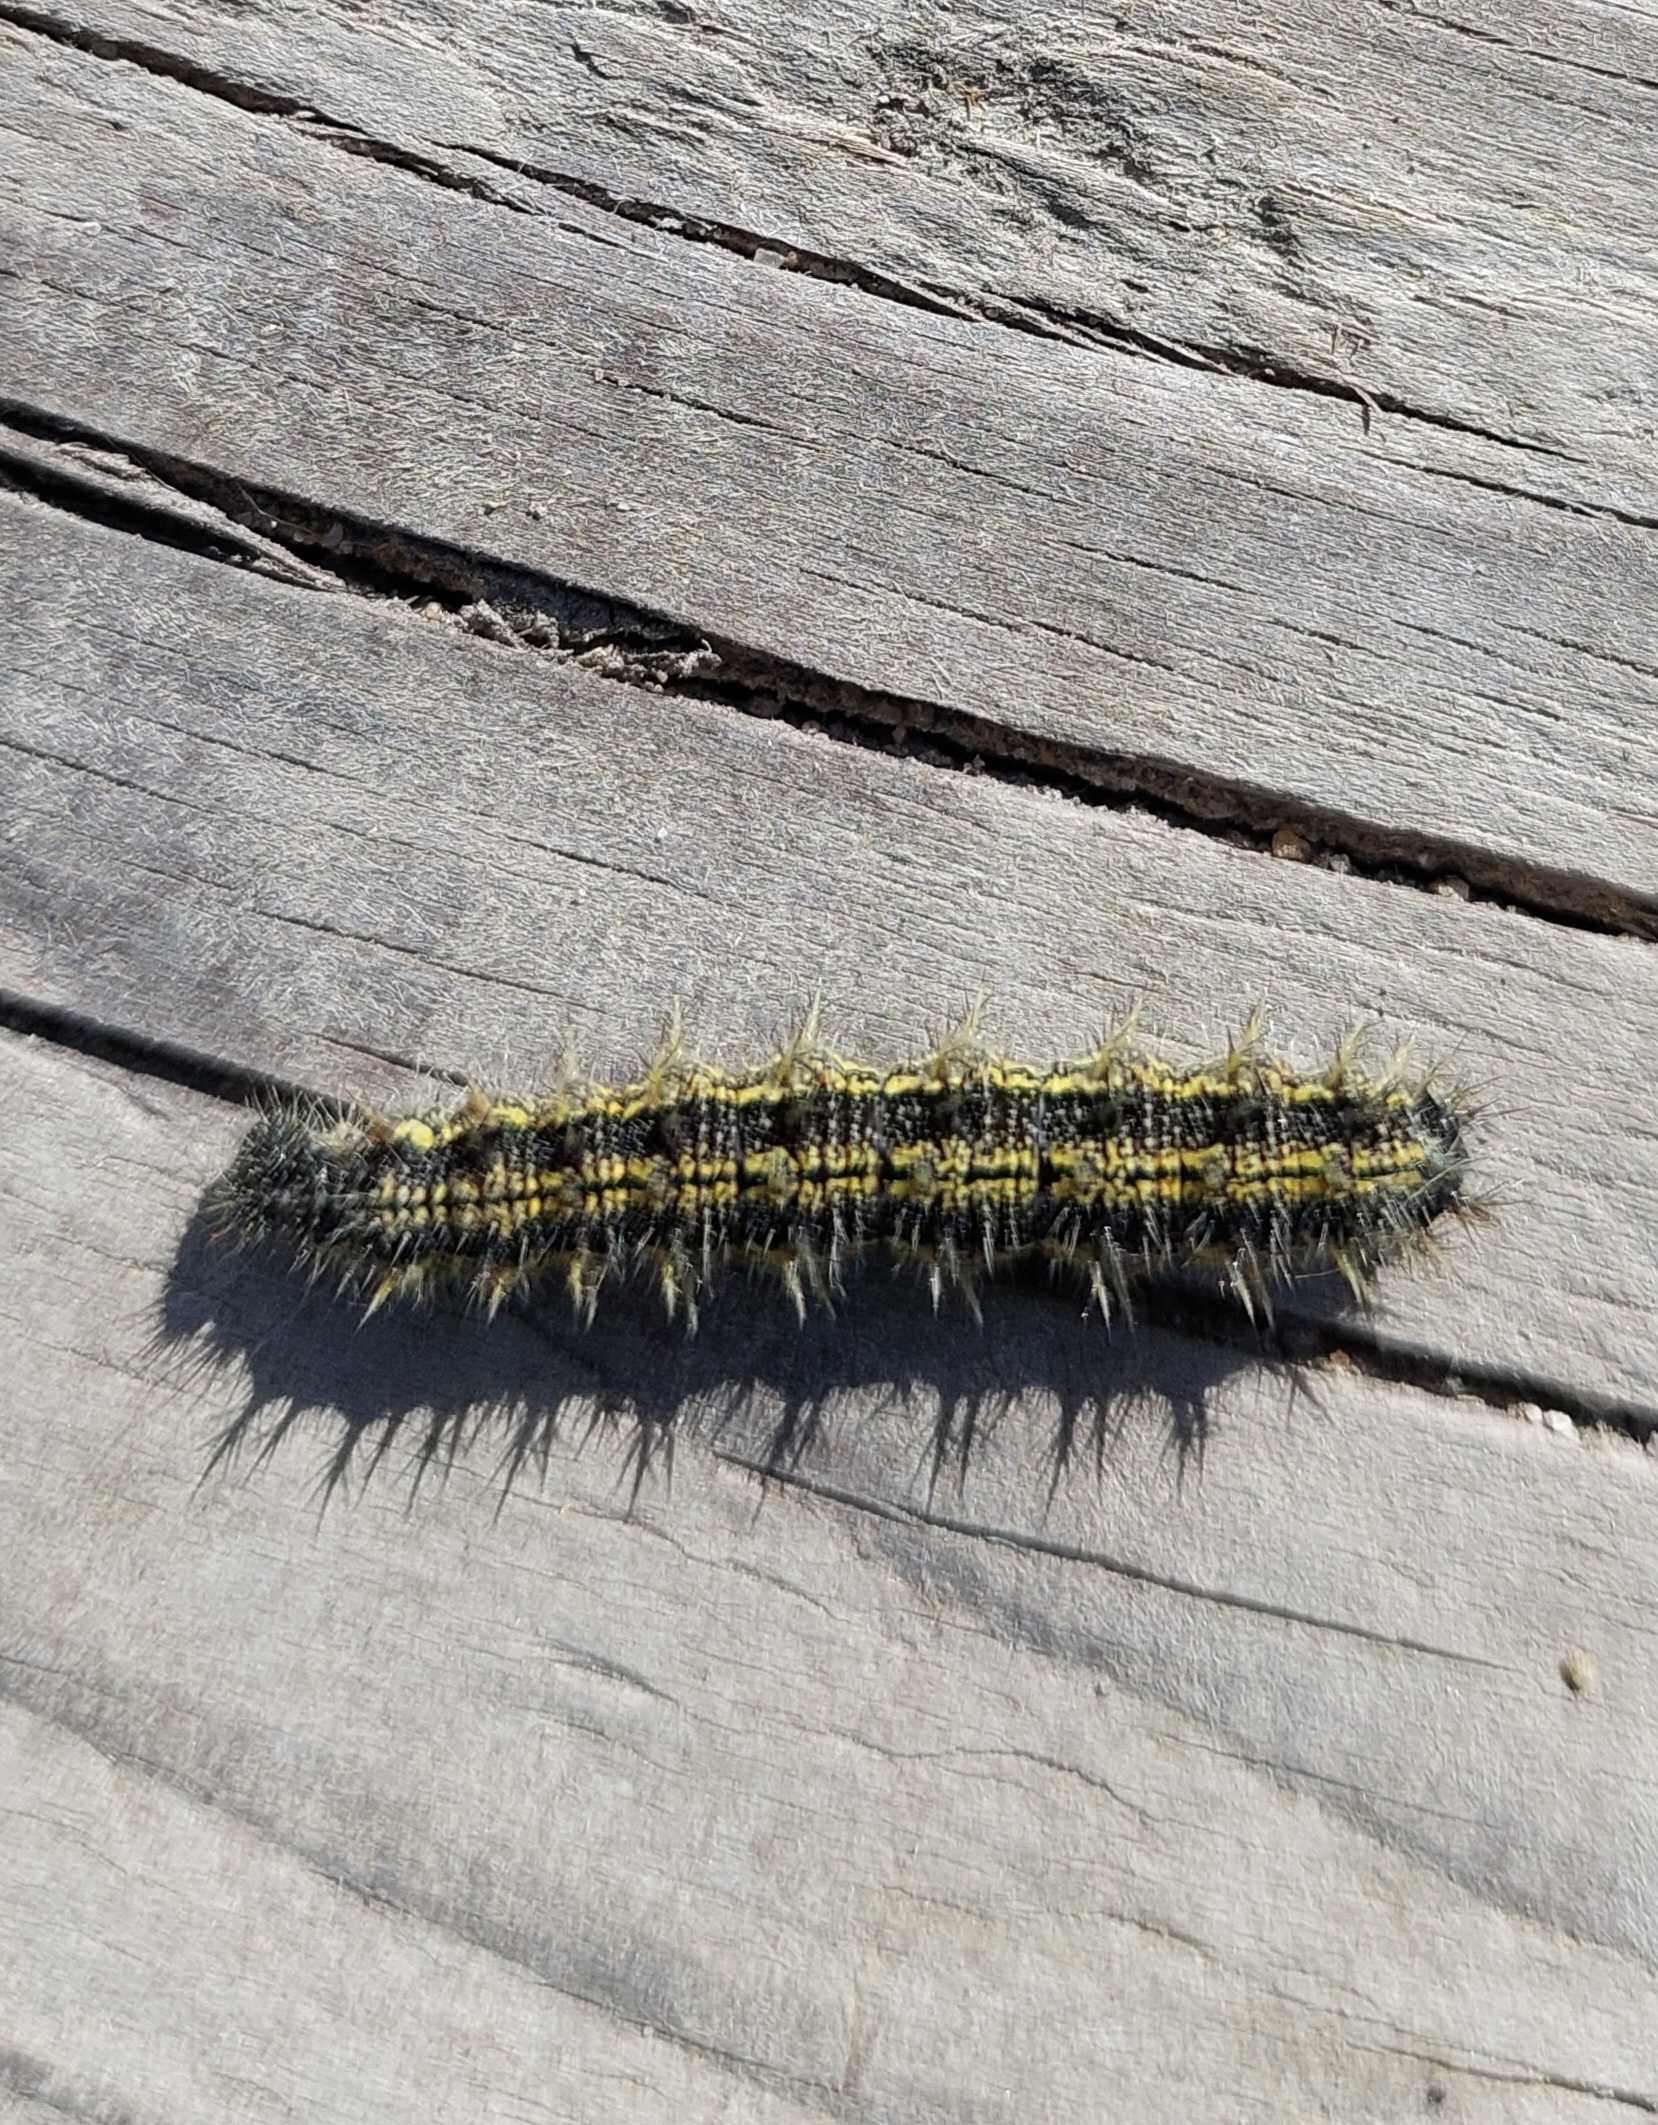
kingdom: Animalia
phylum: Arthropoda
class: Insecta
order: Lepidoptera
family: Nymphalidae
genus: Aglais
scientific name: Aglais urticae
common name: Nældens takvinge
